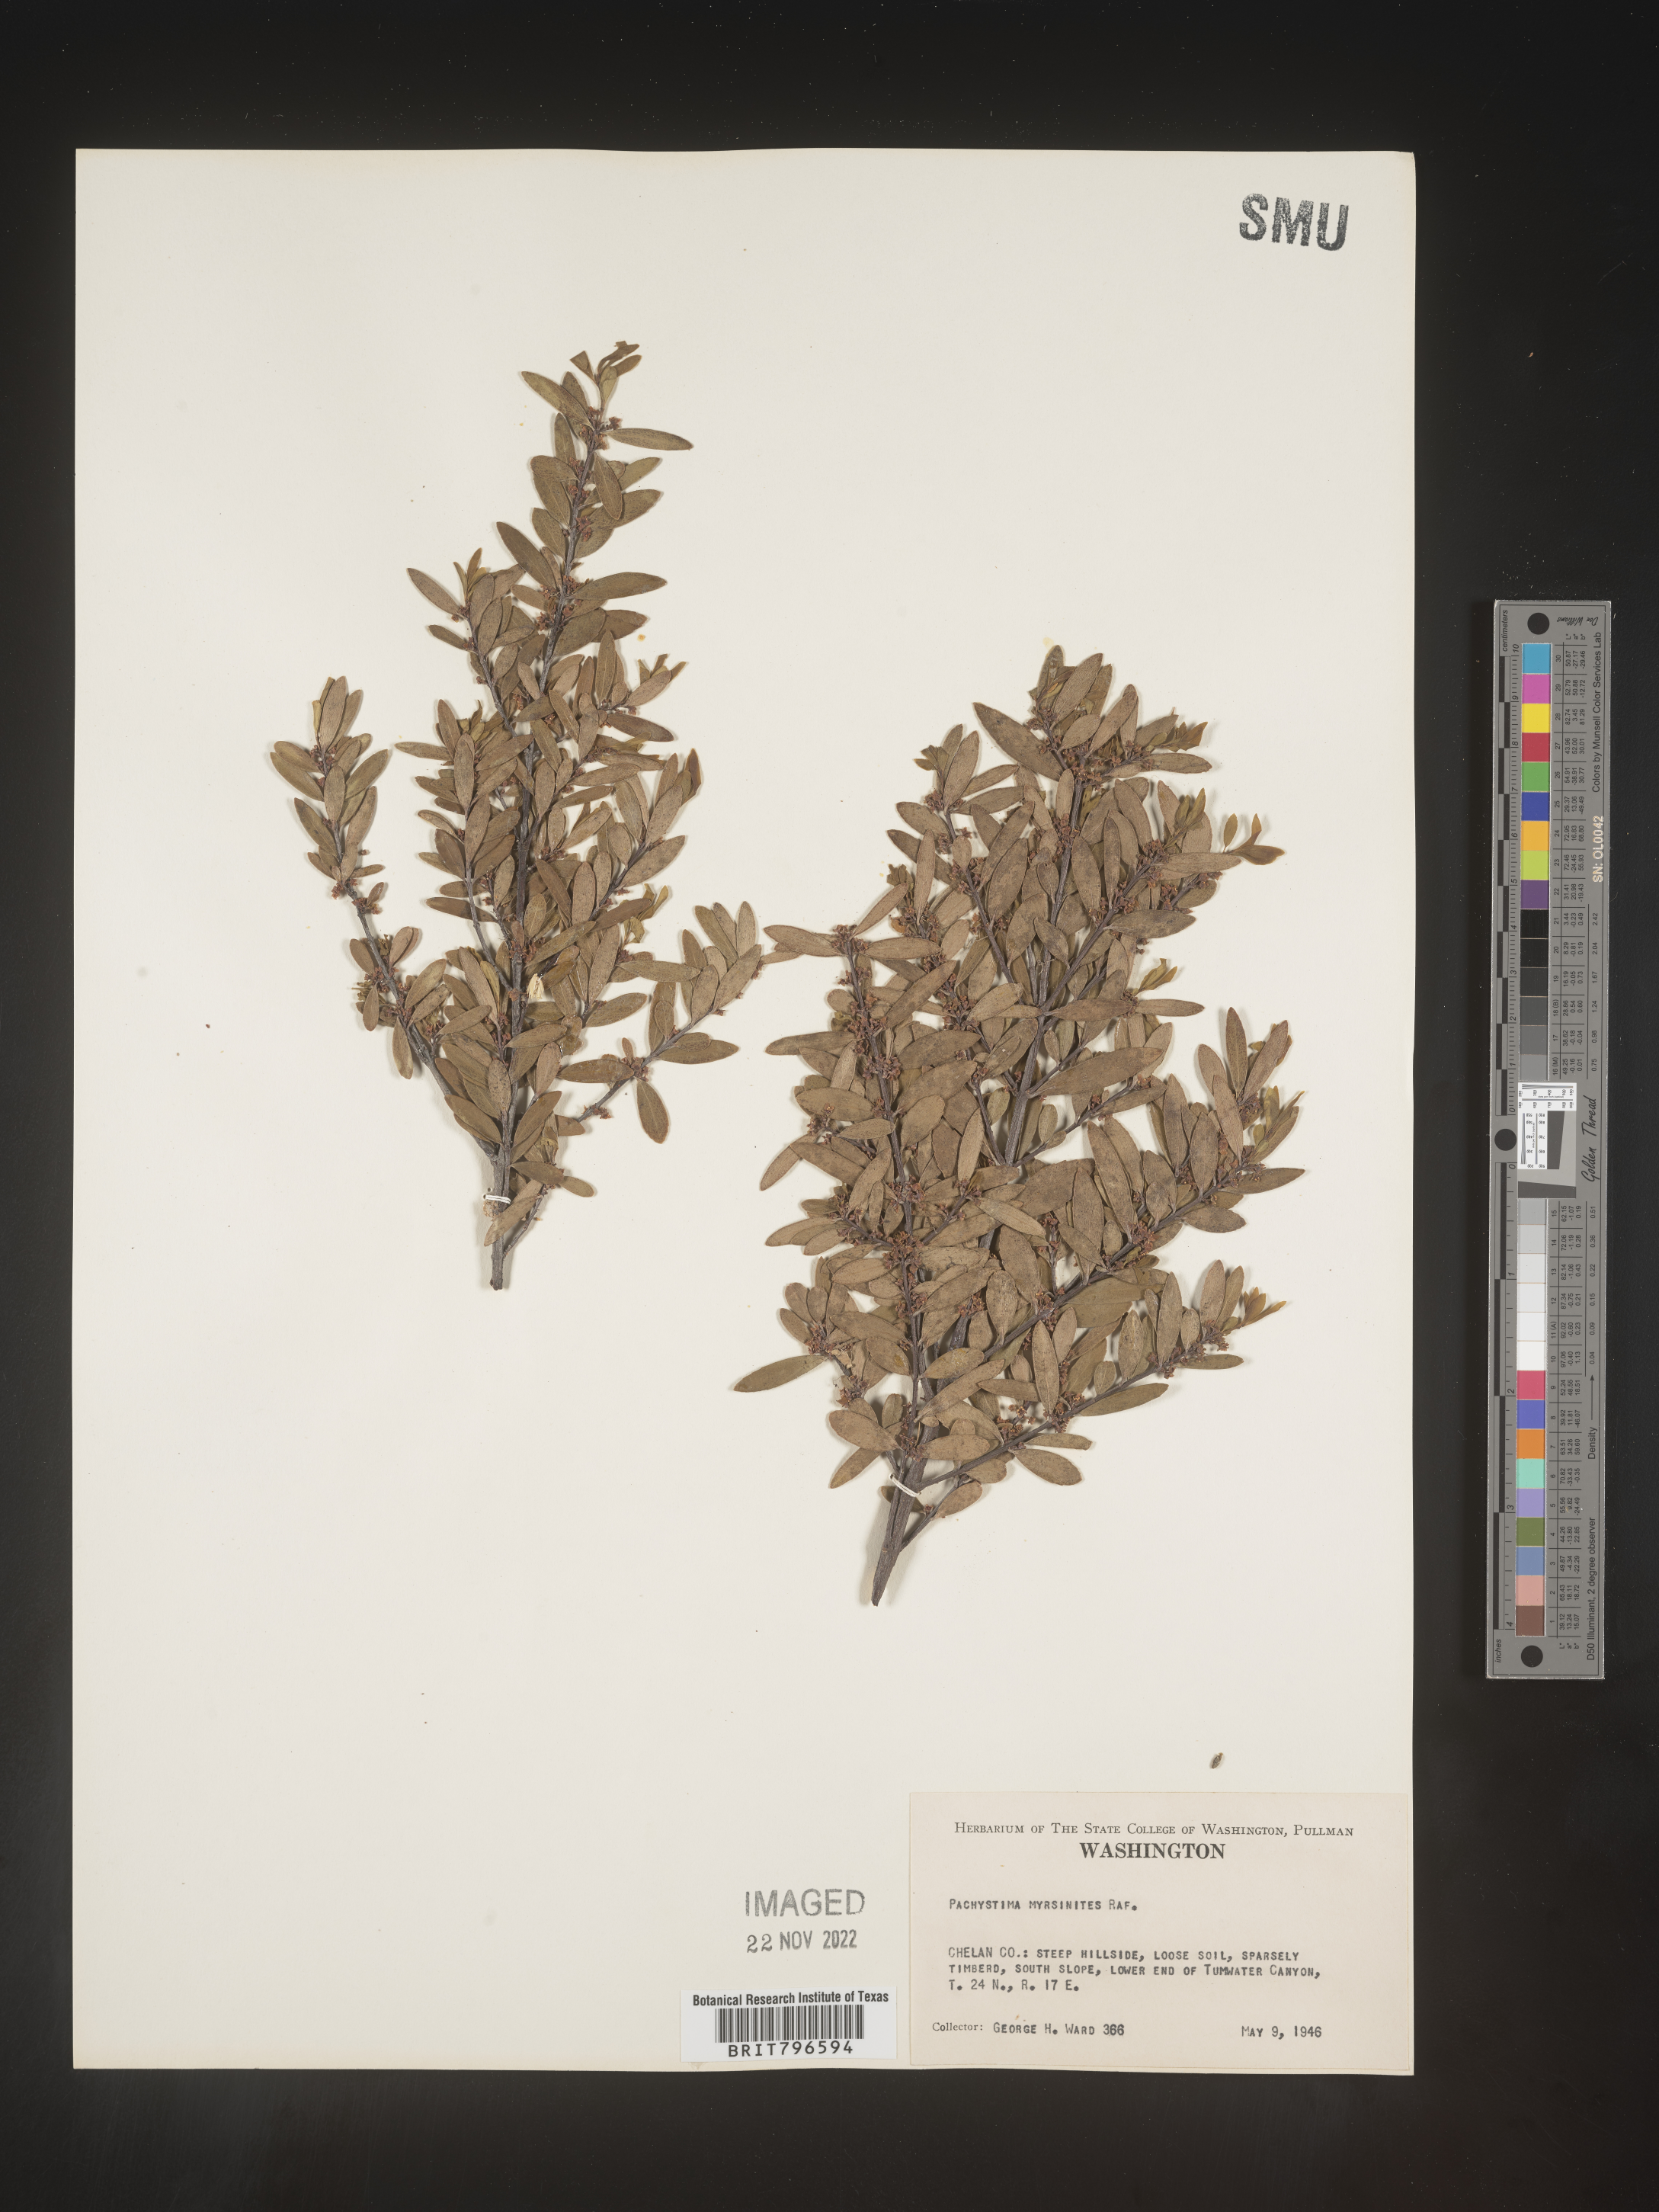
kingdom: Plantae
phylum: Tracheophyta
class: Magnoliopsida
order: Celastrales
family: Celastraceae
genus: Paxistima
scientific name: Paxistima myrsinites
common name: Mountain-lover
